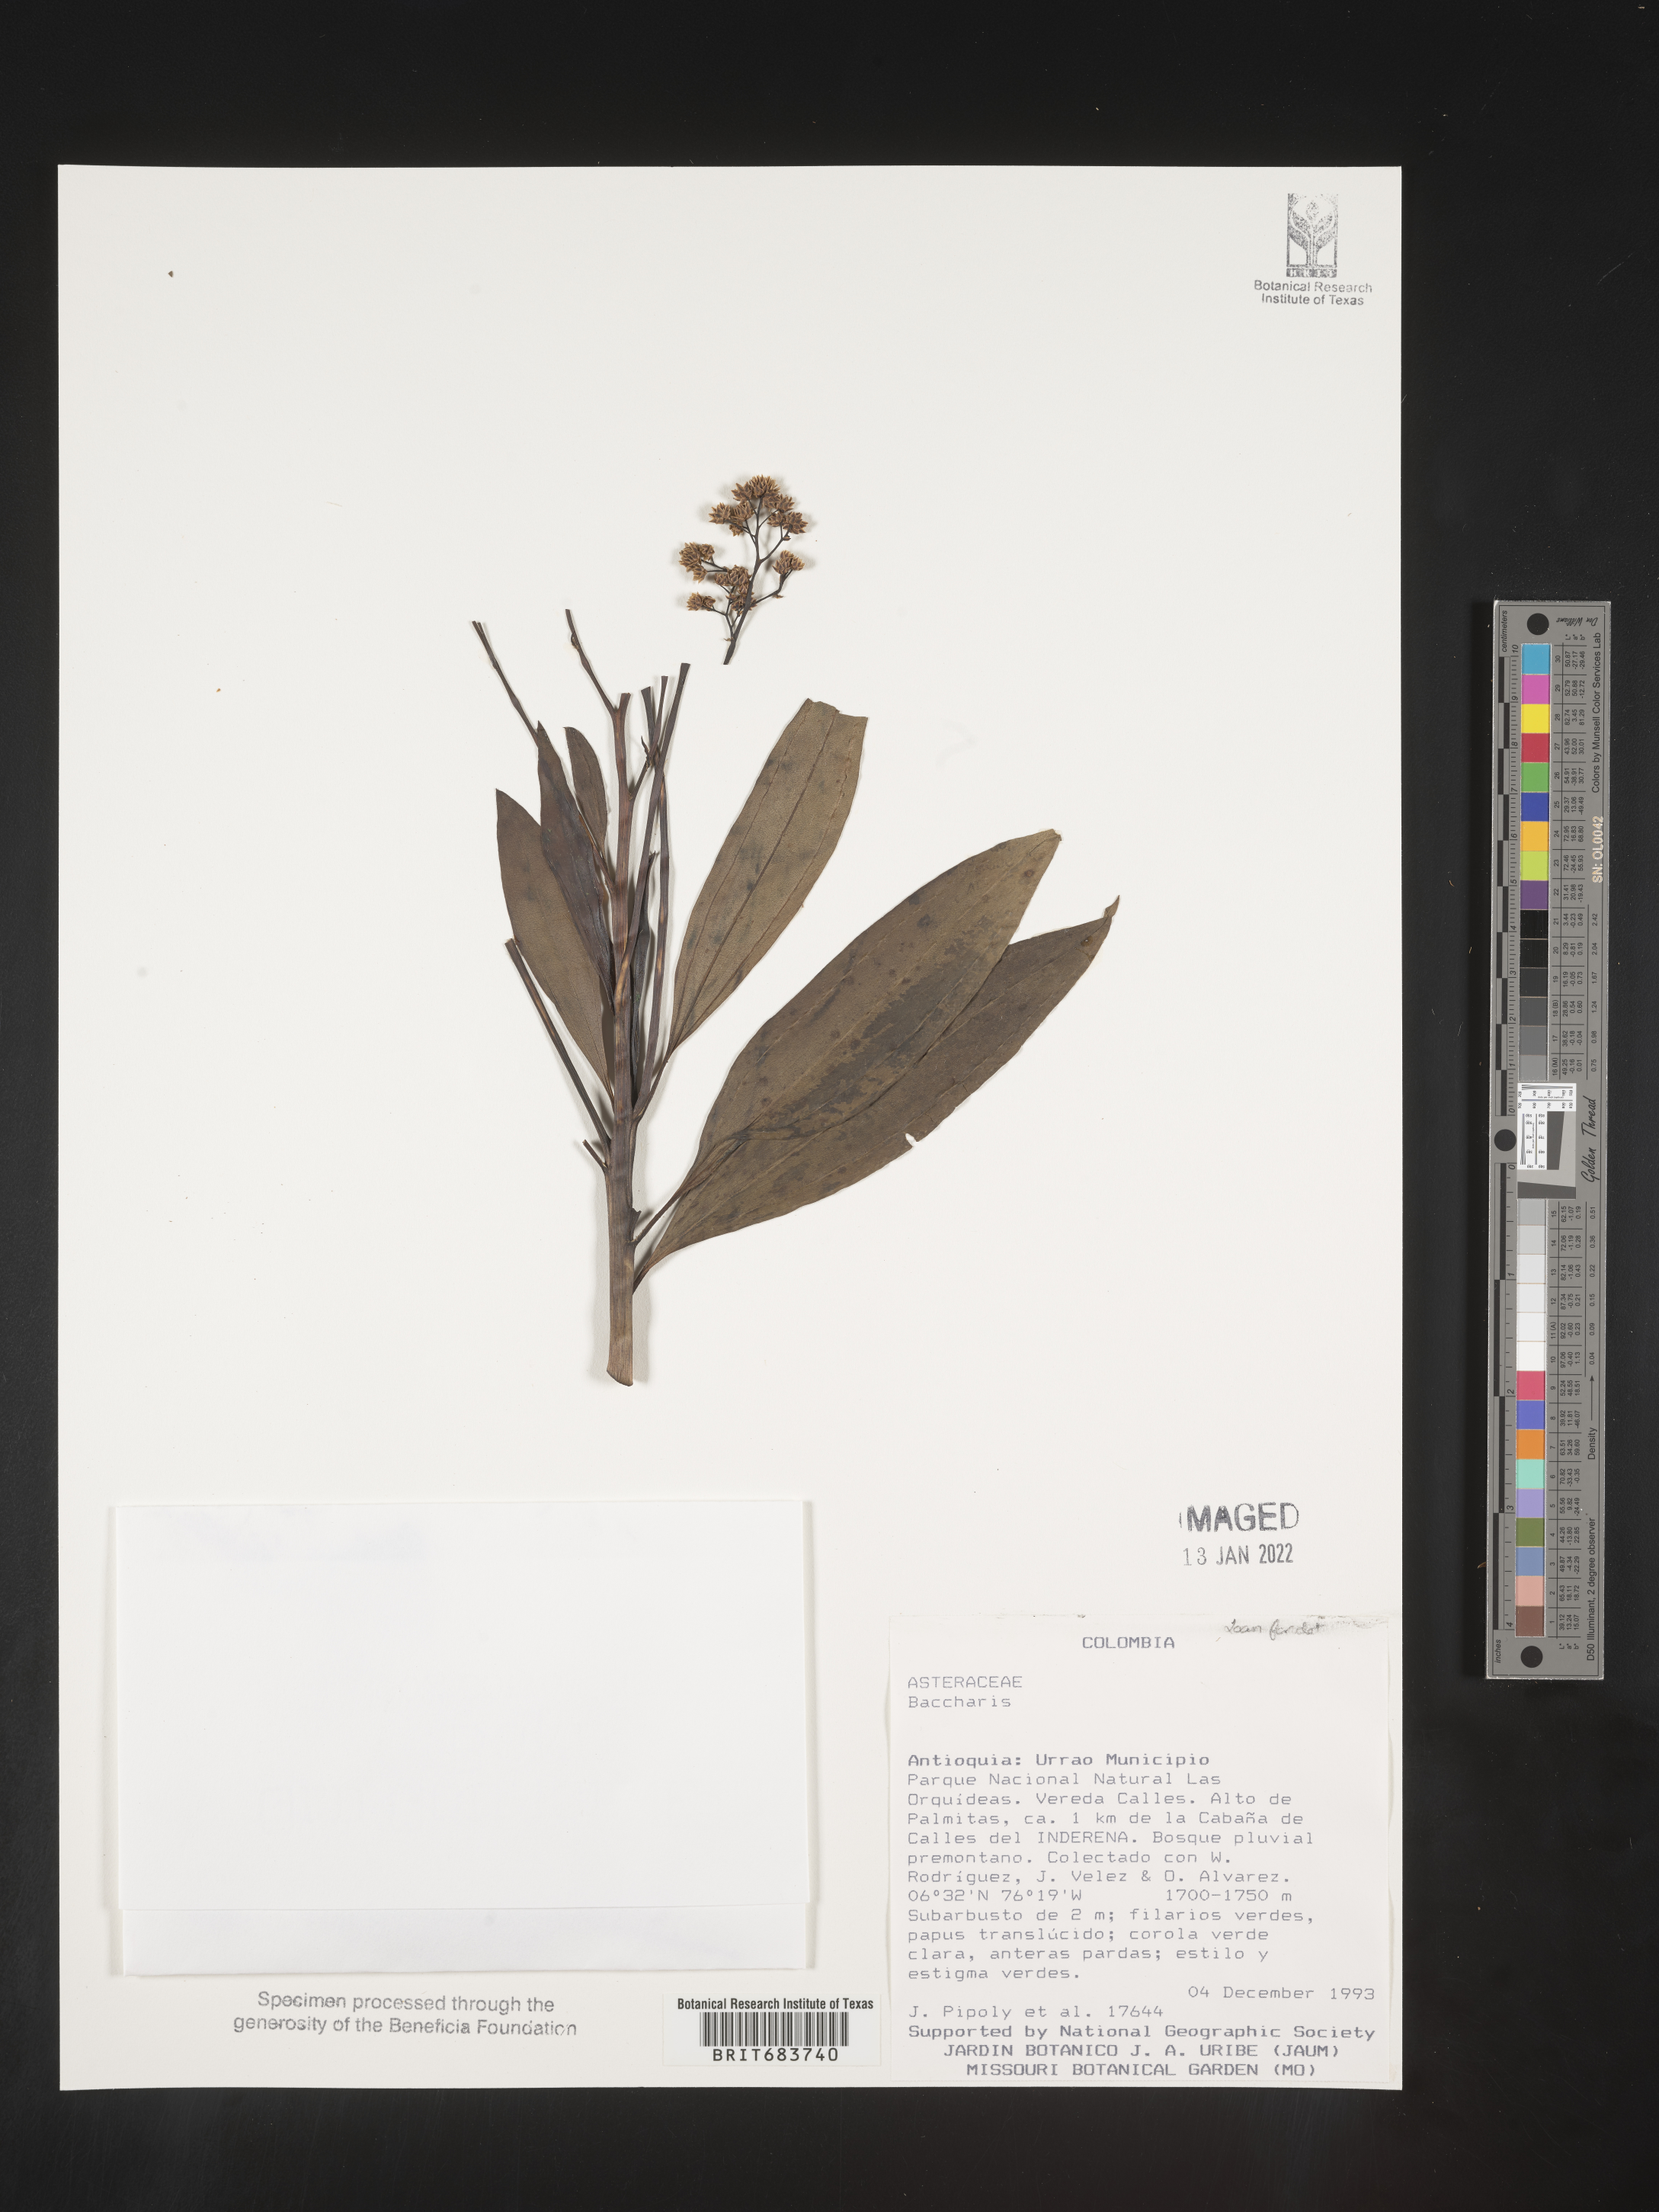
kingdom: Plantae
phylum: Tracheophyta
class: Magnoliopsida
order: Asterales
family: Asteraceae
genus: Baccharis
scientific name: Baccharis
